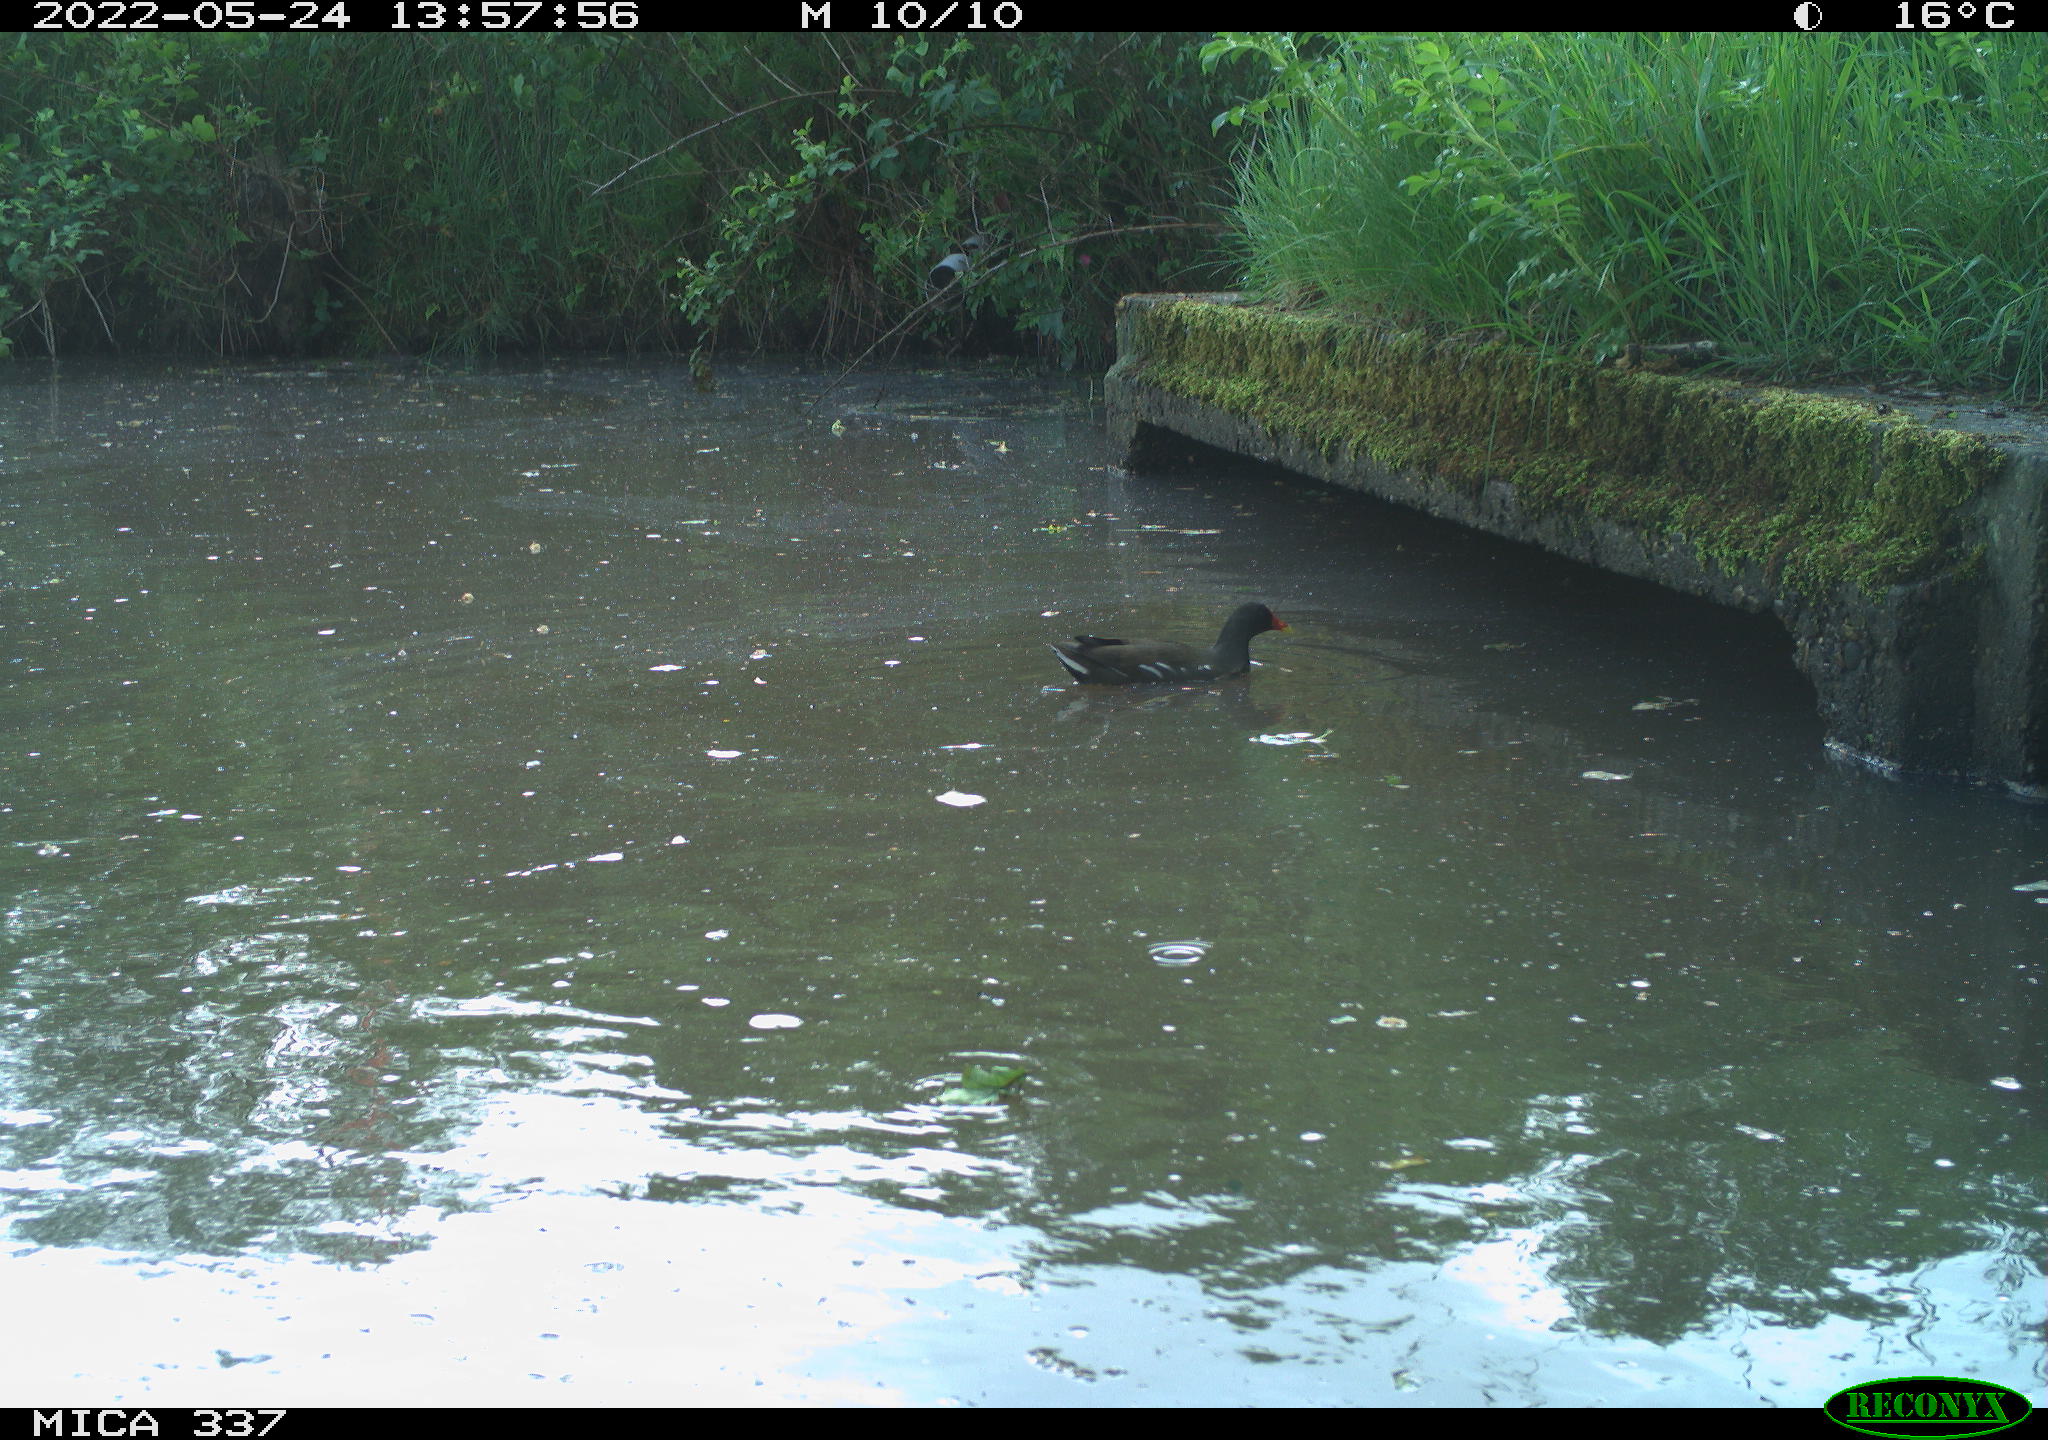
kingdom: Animalia
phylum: Chordata
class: Aves
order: Gruiformes
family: Rallidae
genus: Gallinula
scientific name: Gallinula chloropus
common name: Common moorhen
